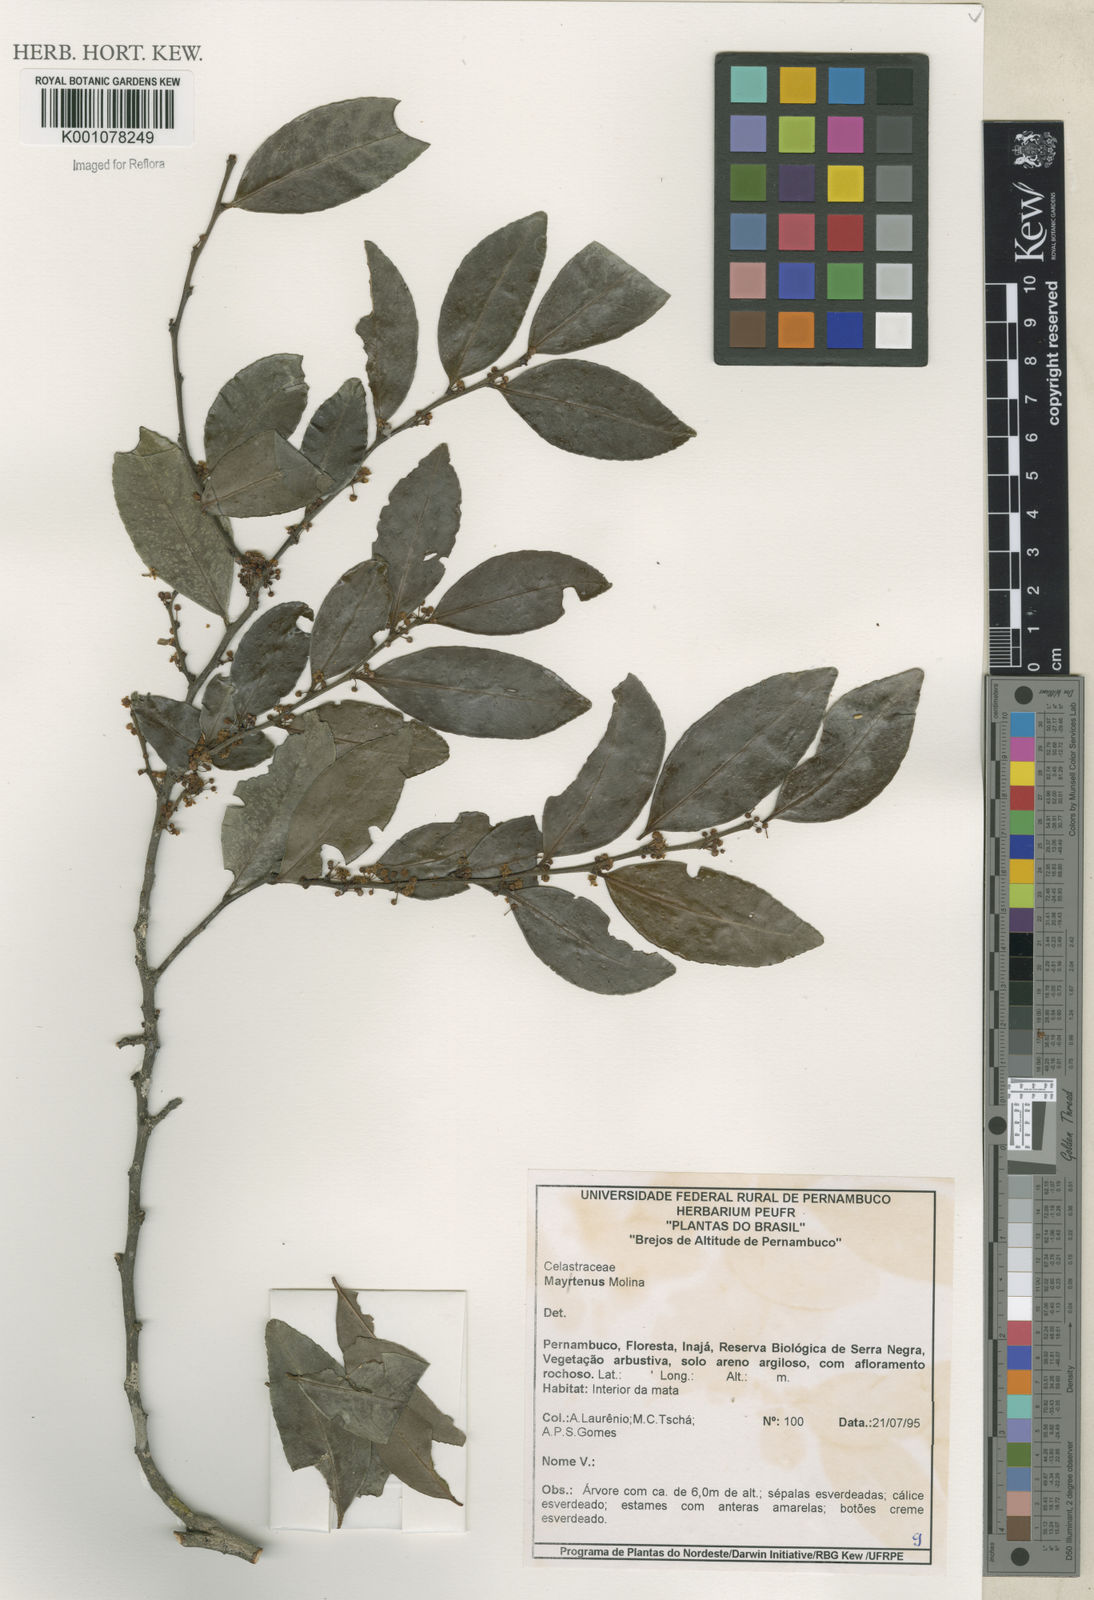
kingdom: Plantae
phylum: Tracheophyta
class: Magnoliopsida
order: Celastrales
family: Celastraceae
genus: Maytenus
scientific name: Maytenus
